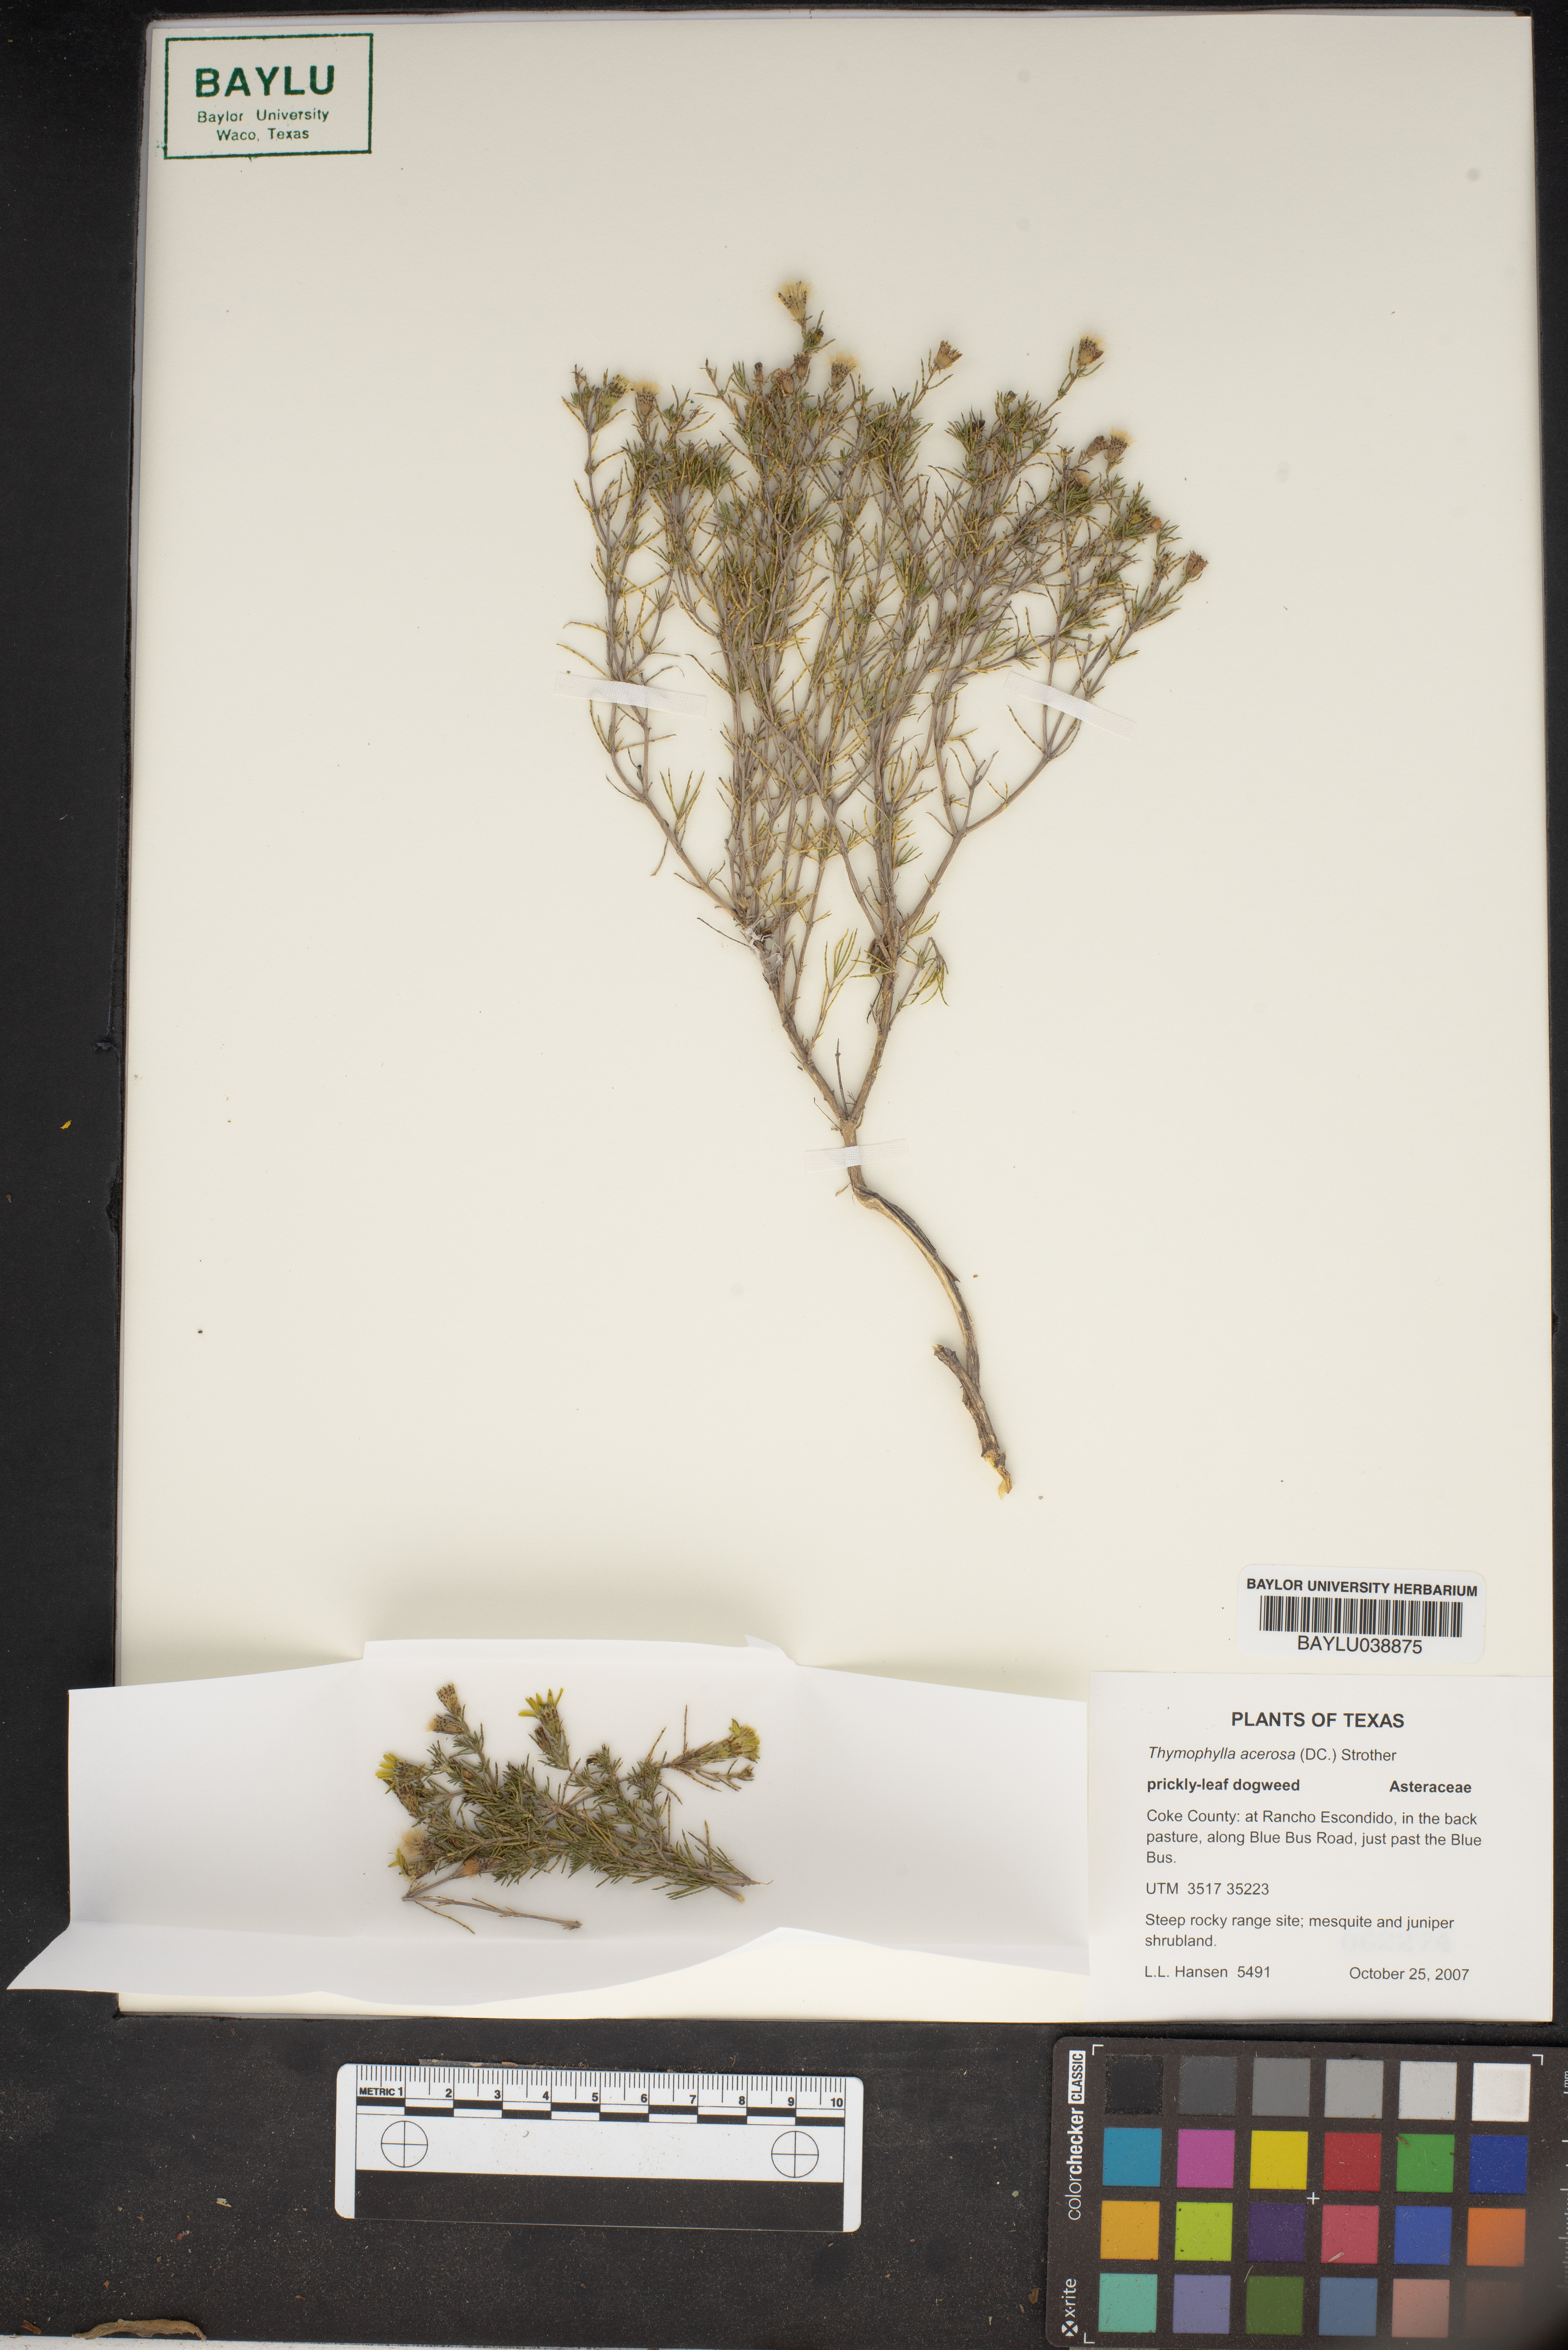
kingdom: Plantae
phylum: Tracheophyta
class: Magnoliopsida
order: Asterales
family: Asteraceae
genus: Thymophylla
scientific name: Thymophylla acerosa
